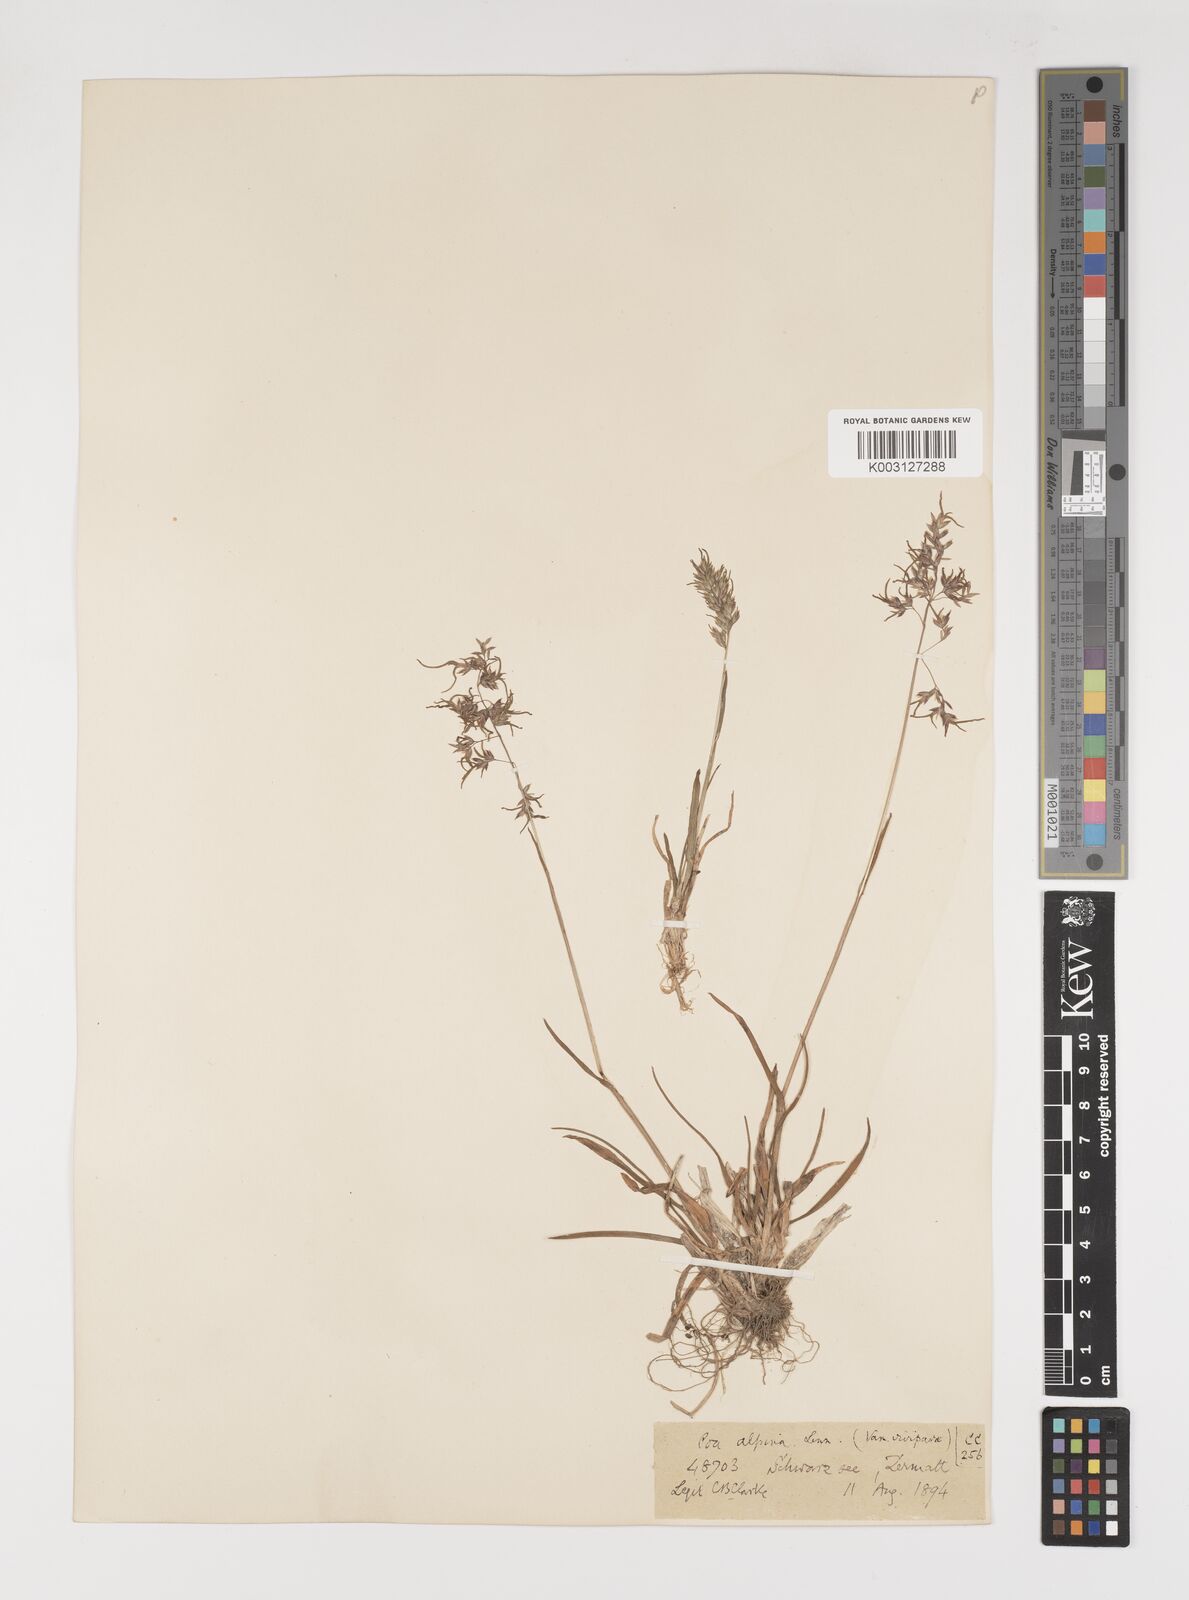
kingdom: Plantae
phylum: Tracheophyta
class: Liliopsida
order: Poales
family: Poaceae
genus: Poa
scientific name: Poa alpina
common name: Alpine bluegrass
